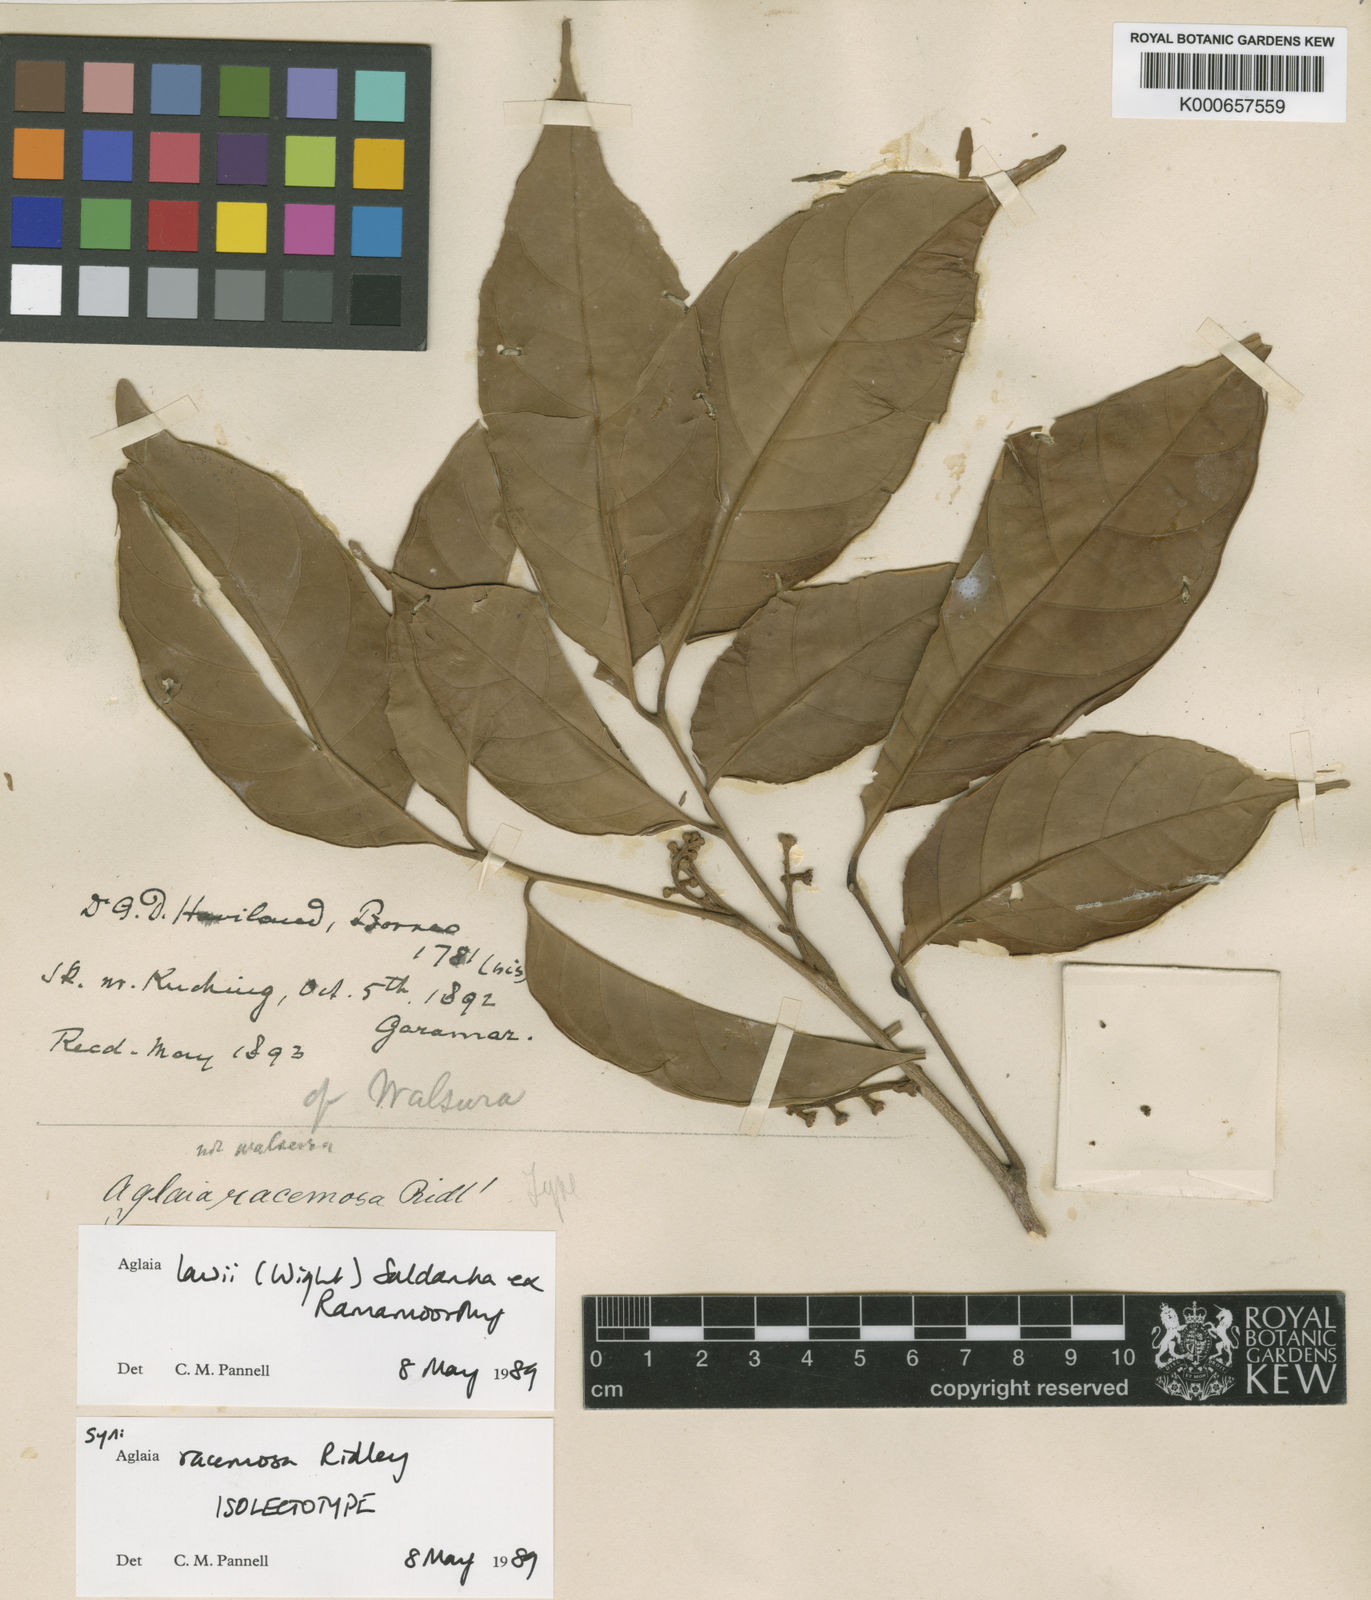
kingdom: Plantae
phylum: Tracheophyta
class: Magnoliopsida
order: Sapindales
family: Meliaceae
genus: Aglaia
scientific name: Aglaia lawii
